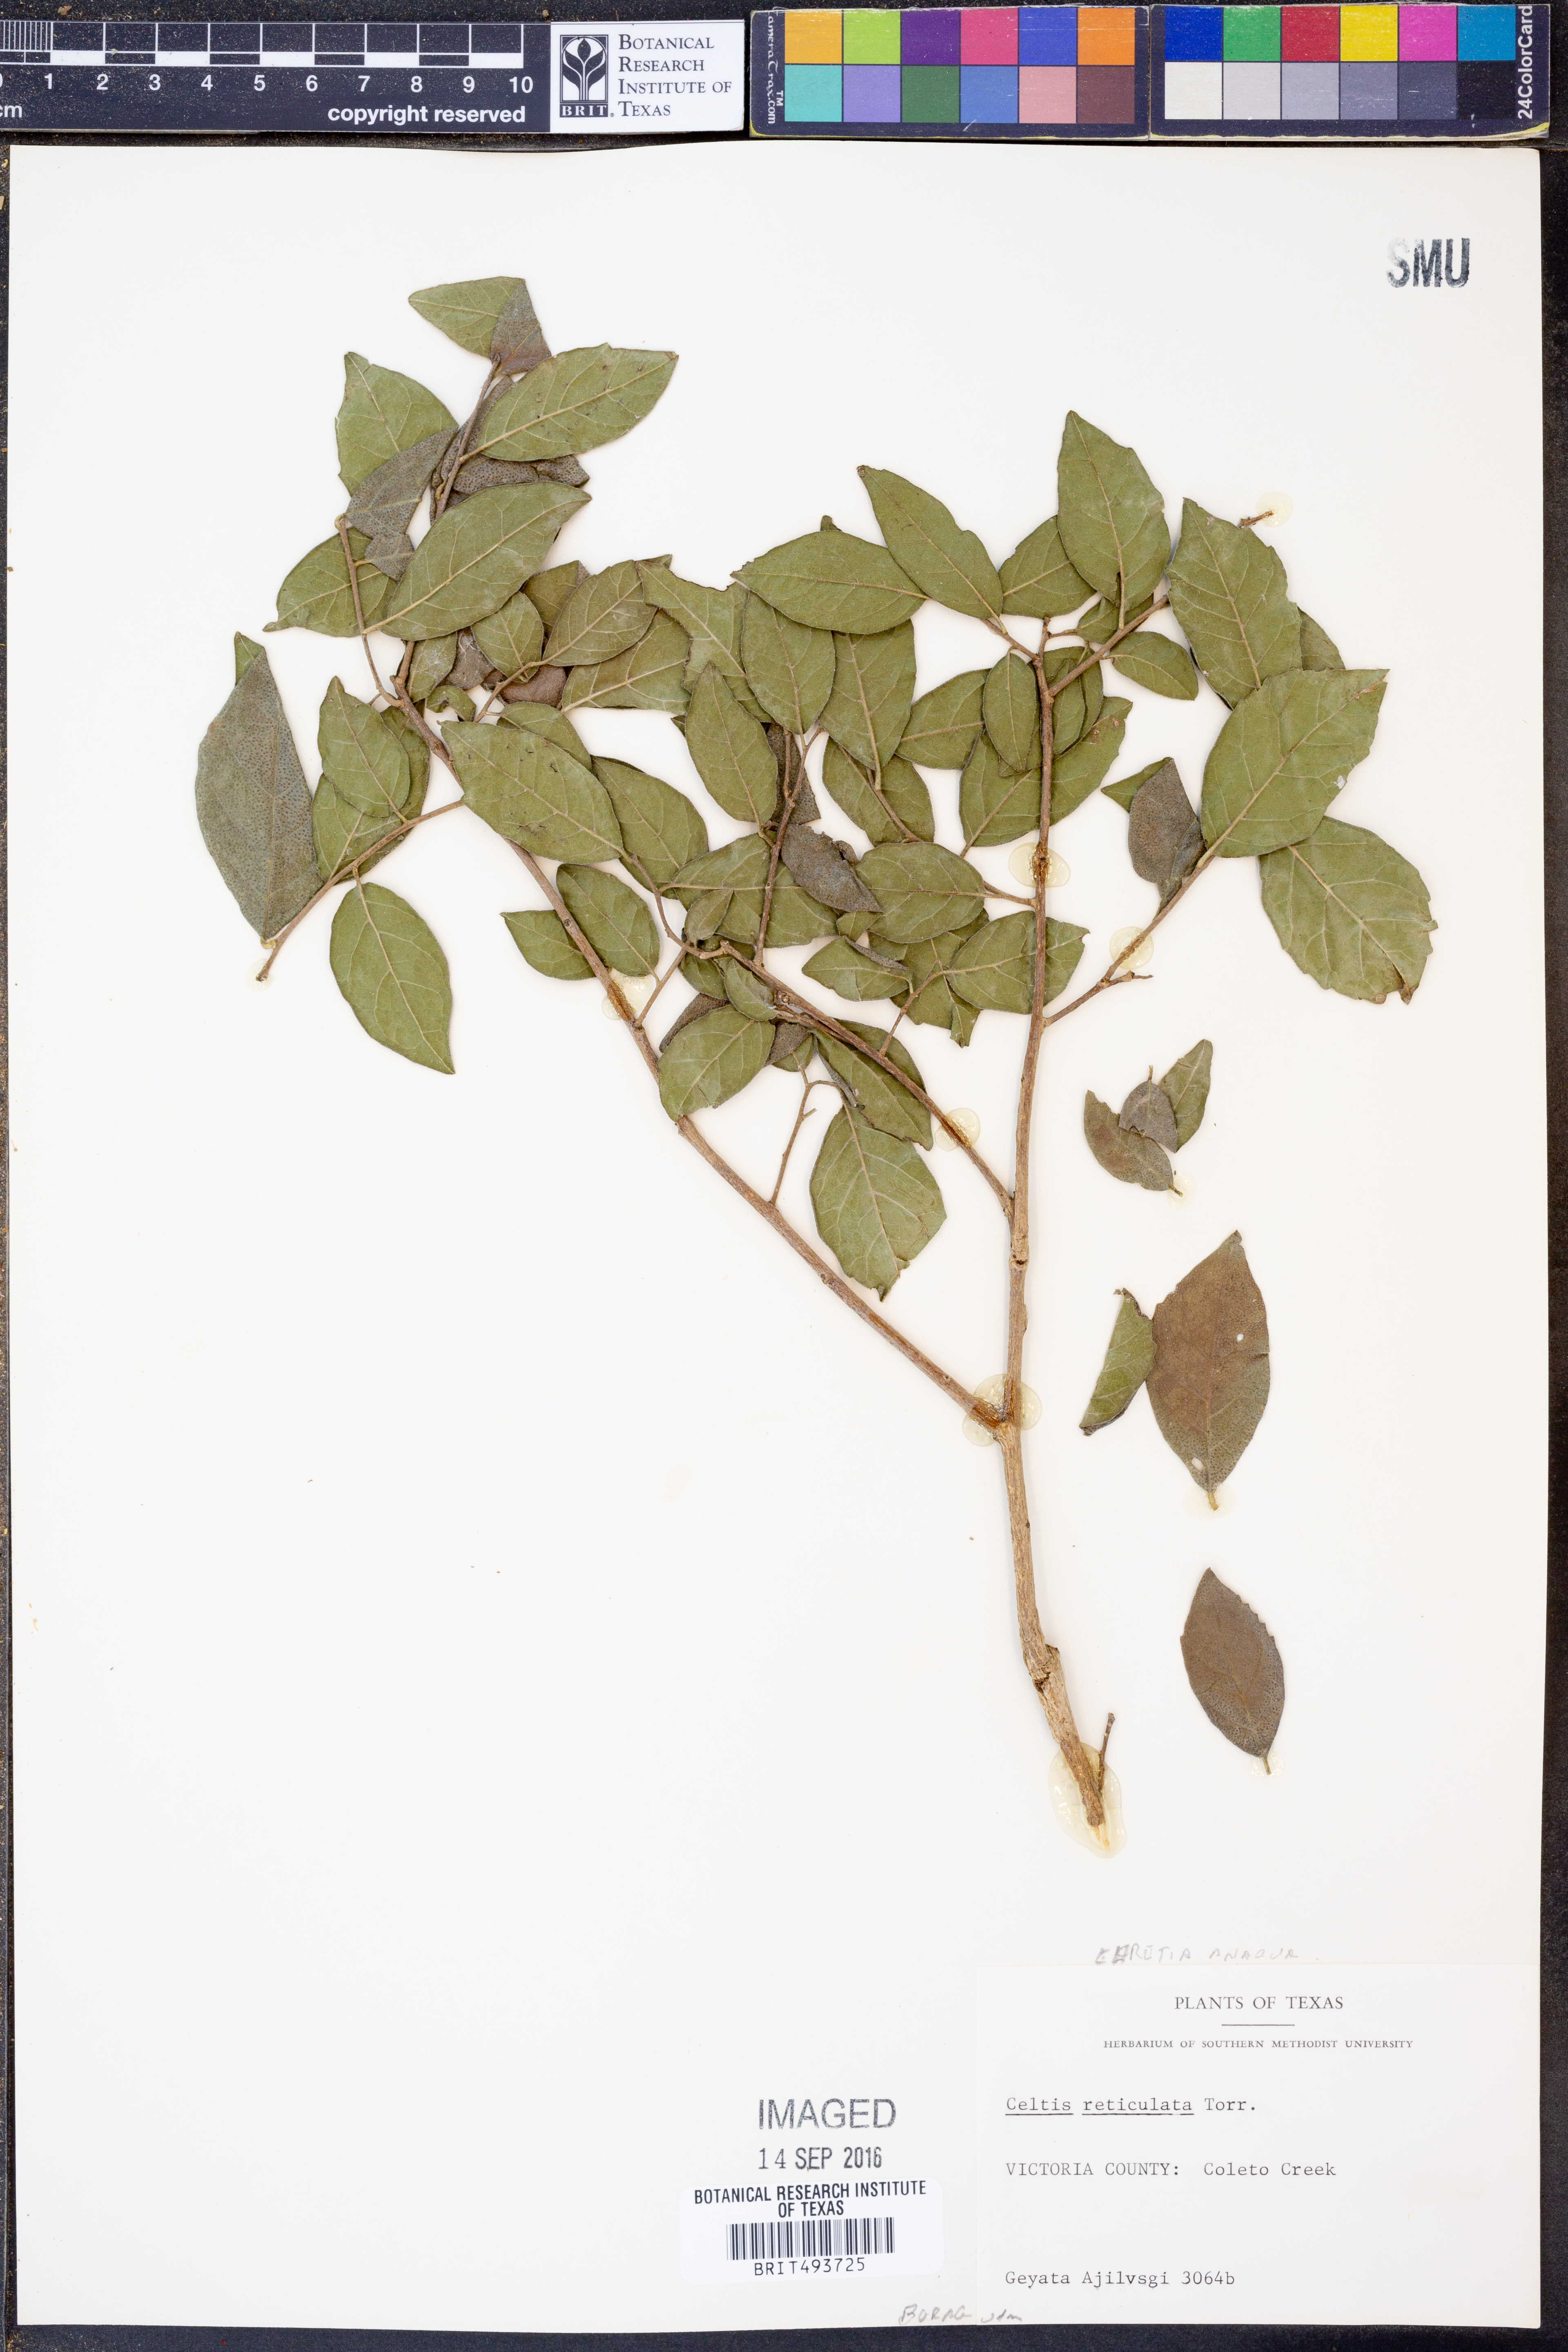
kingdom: Plantae
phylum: Tracheophyta
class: Magnoliopsida
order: Rosales
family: Cannabaceae
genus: Celtis
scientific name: Celtis reticulata
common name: Netleaf hackberry
